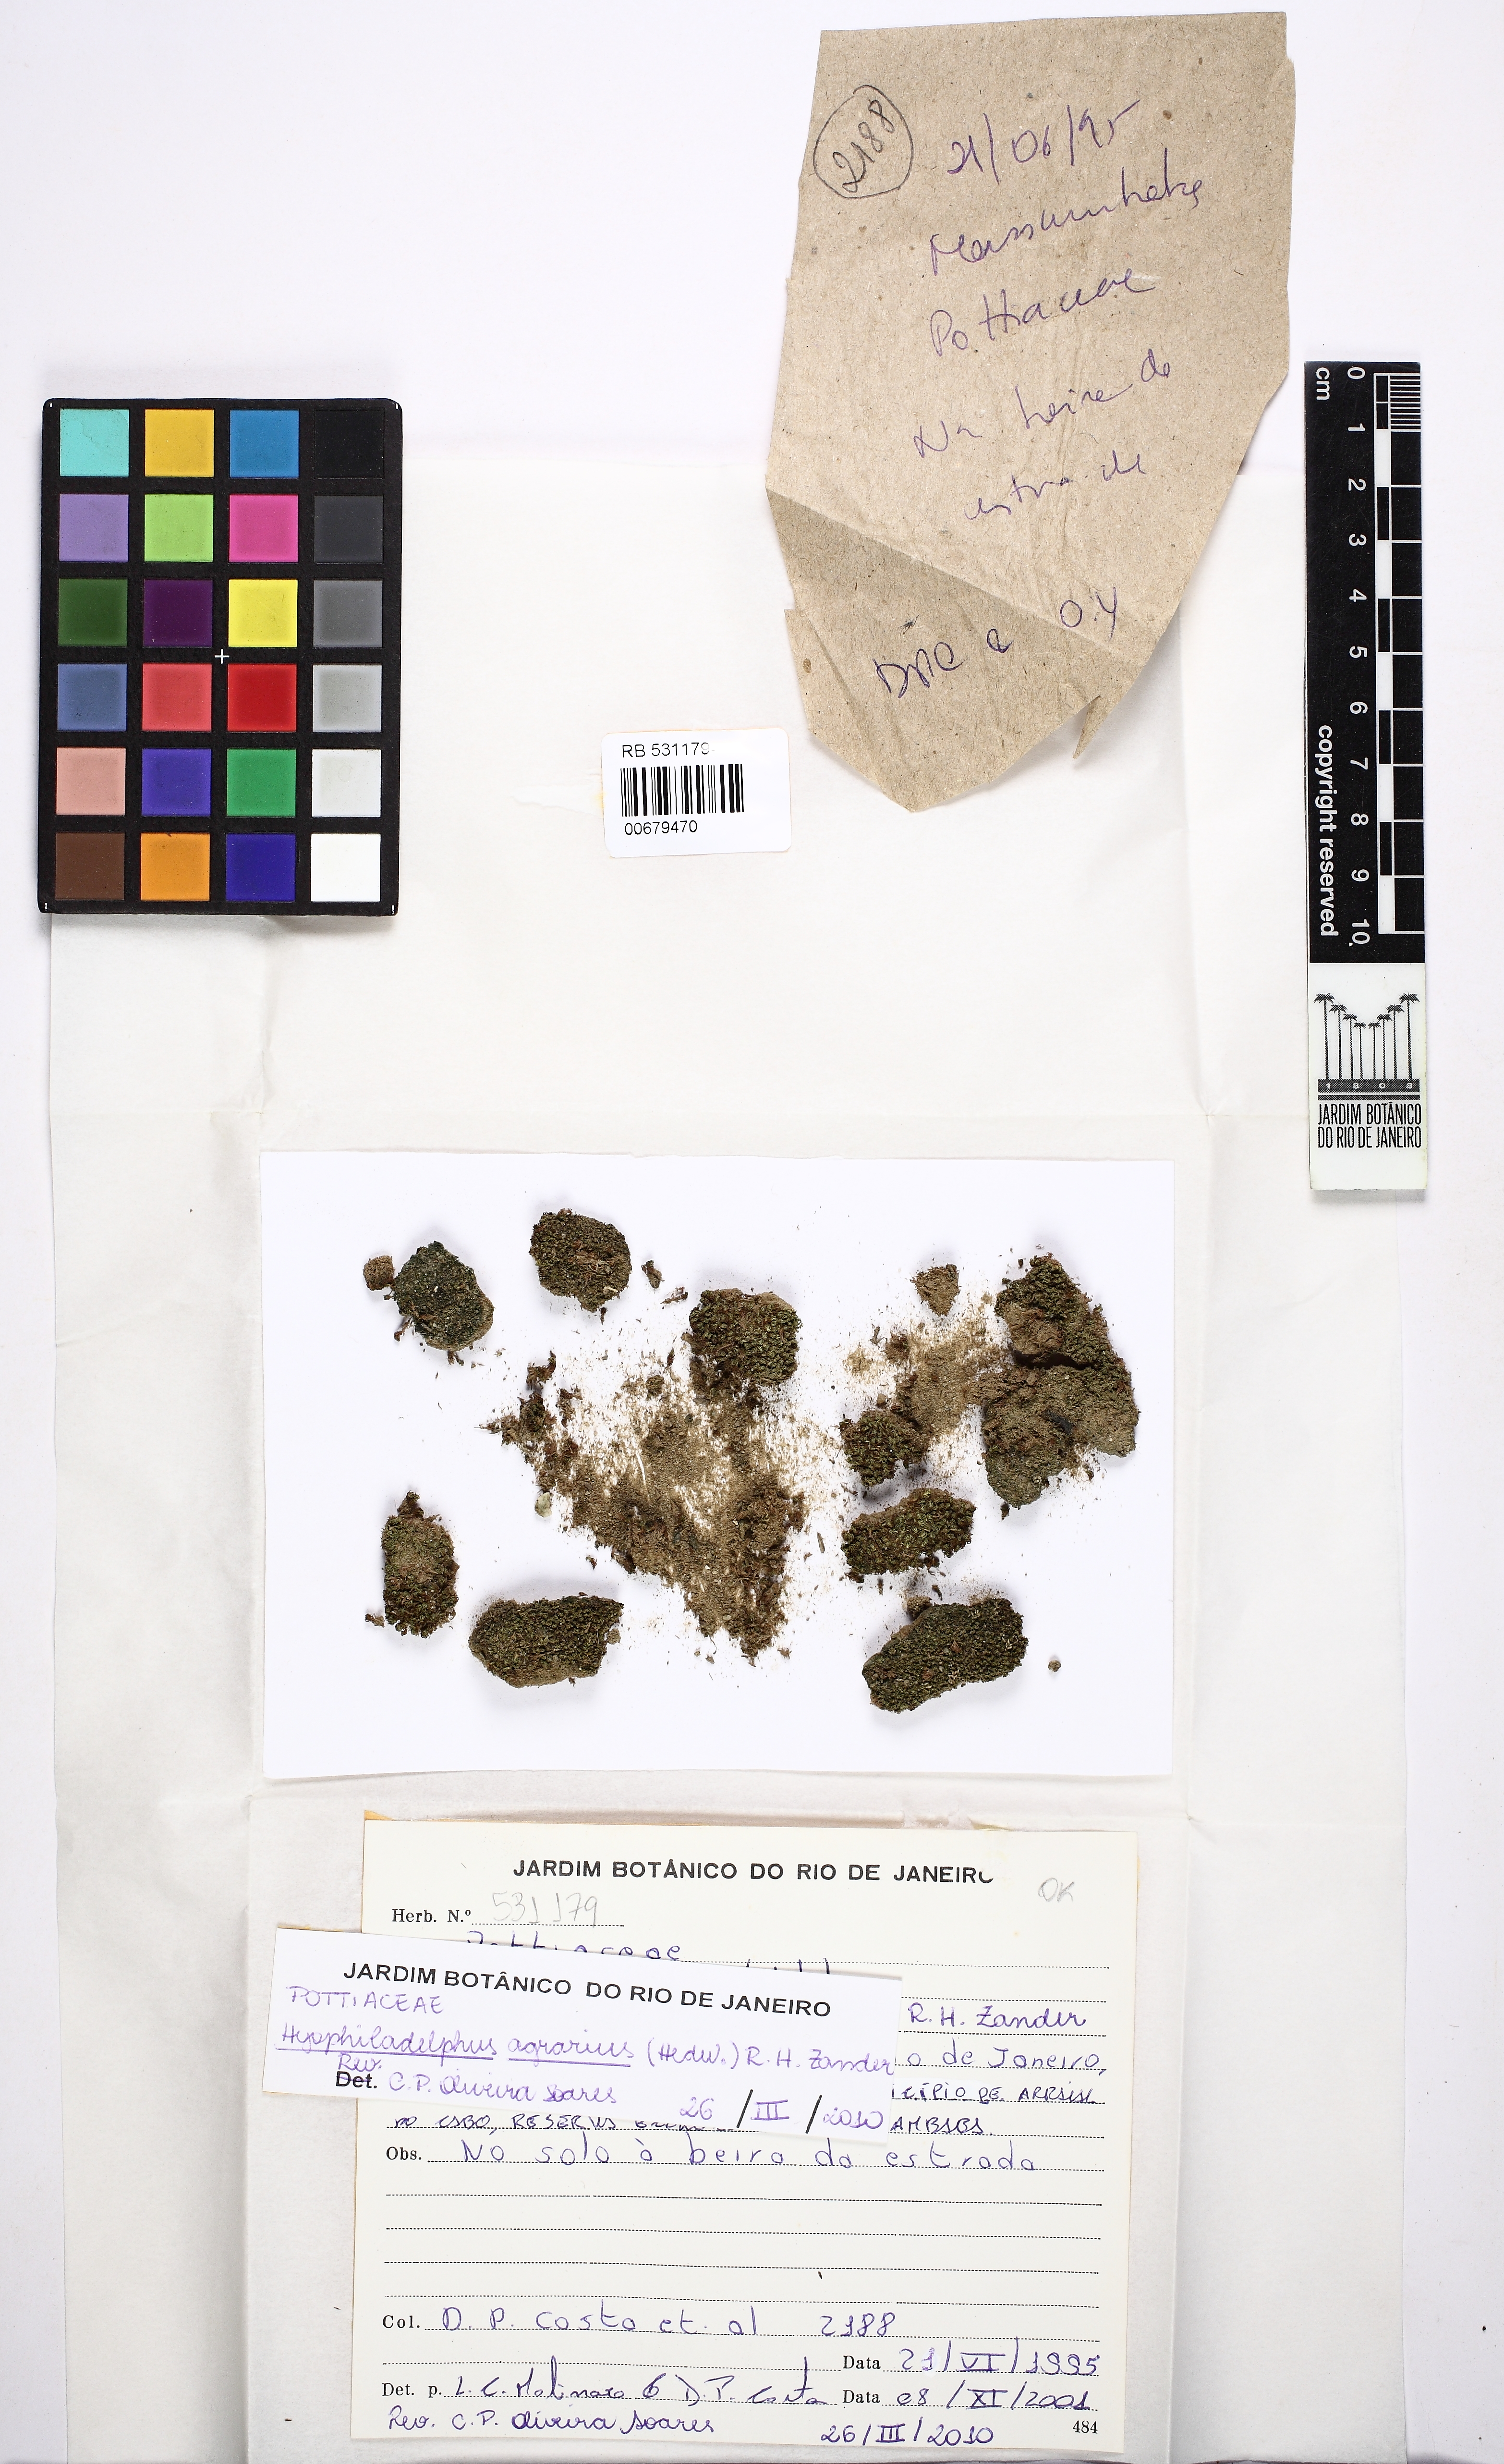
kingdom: Plantae
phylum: Bryophyta
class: Bryopsida
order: Pottiales
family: Pottiaceae
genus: Hyophiladelphus
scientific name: Hyophiladelphus agrarius
